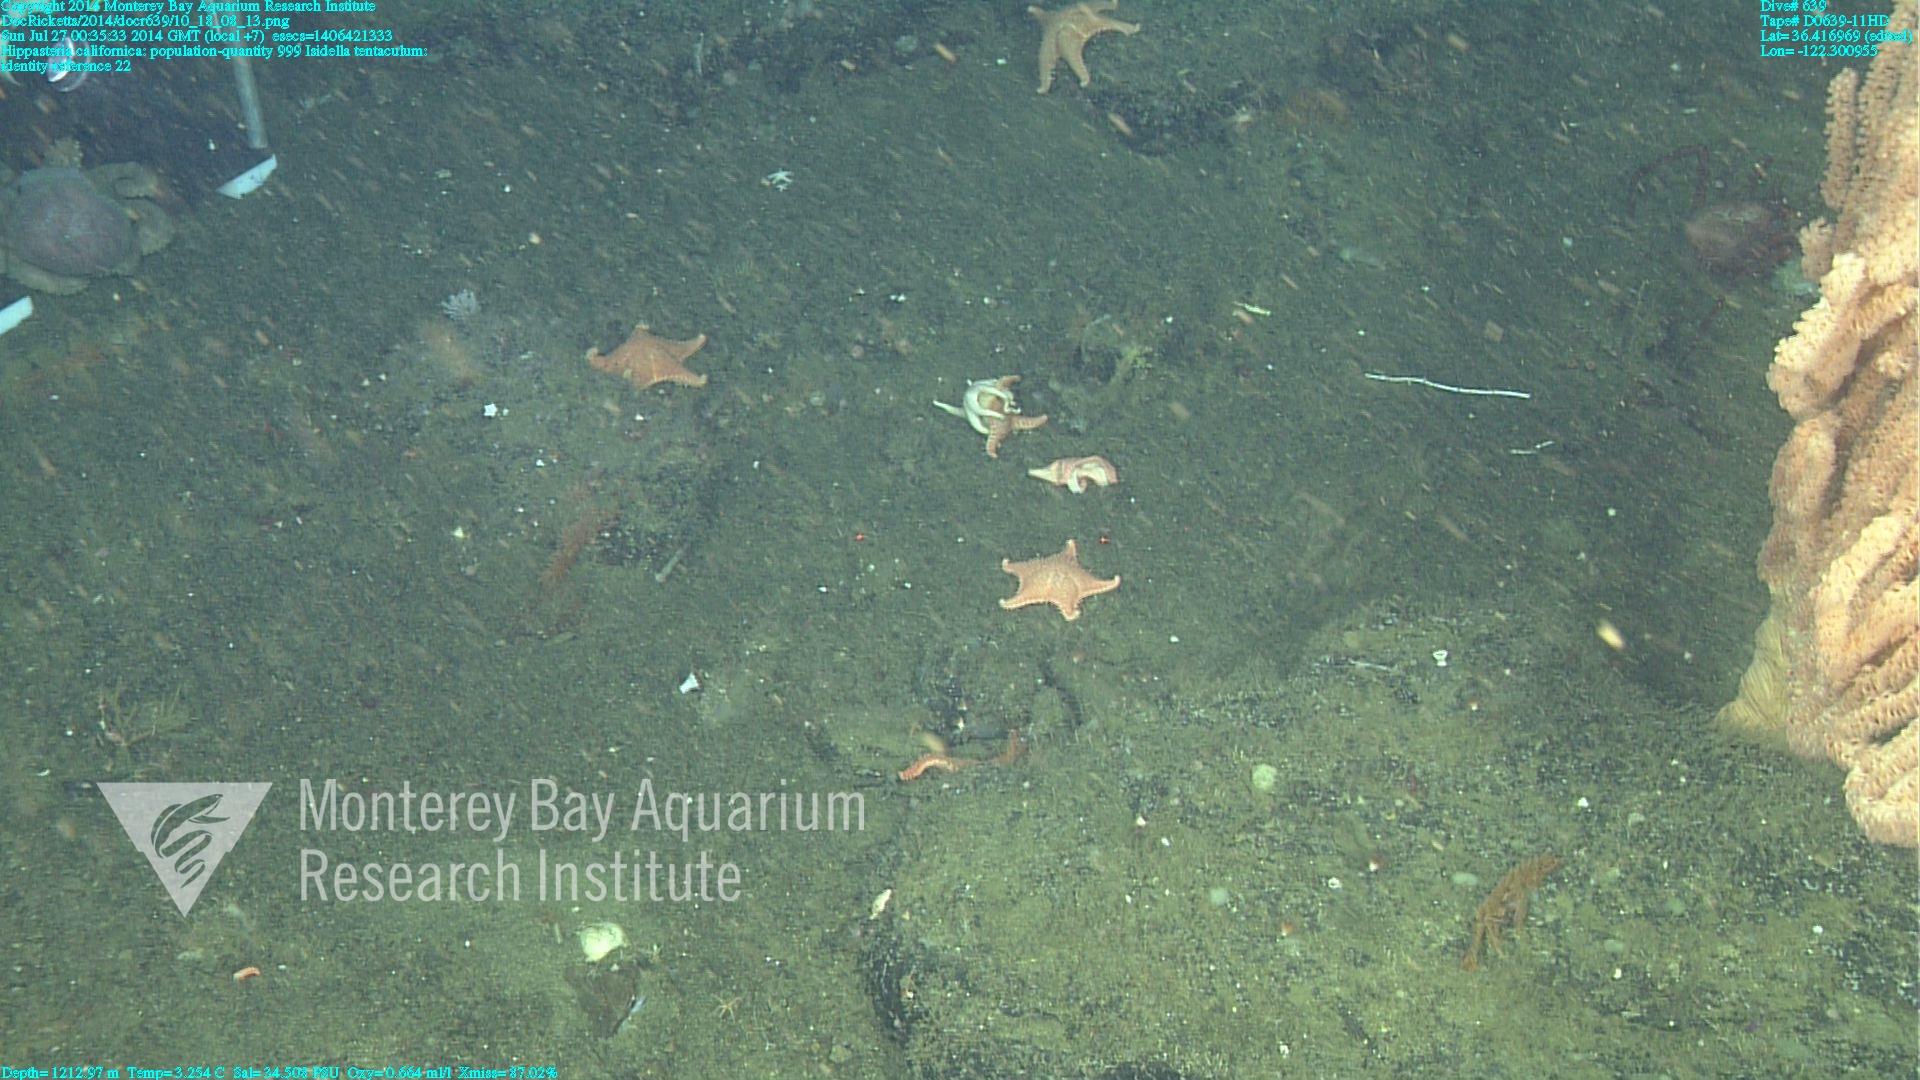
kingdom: Animalia
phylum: Cnidaria
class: Anthozoa
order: Scleralcyonacea
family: Keratoisididae
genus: Isidella
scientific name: Isidella tentaculum
